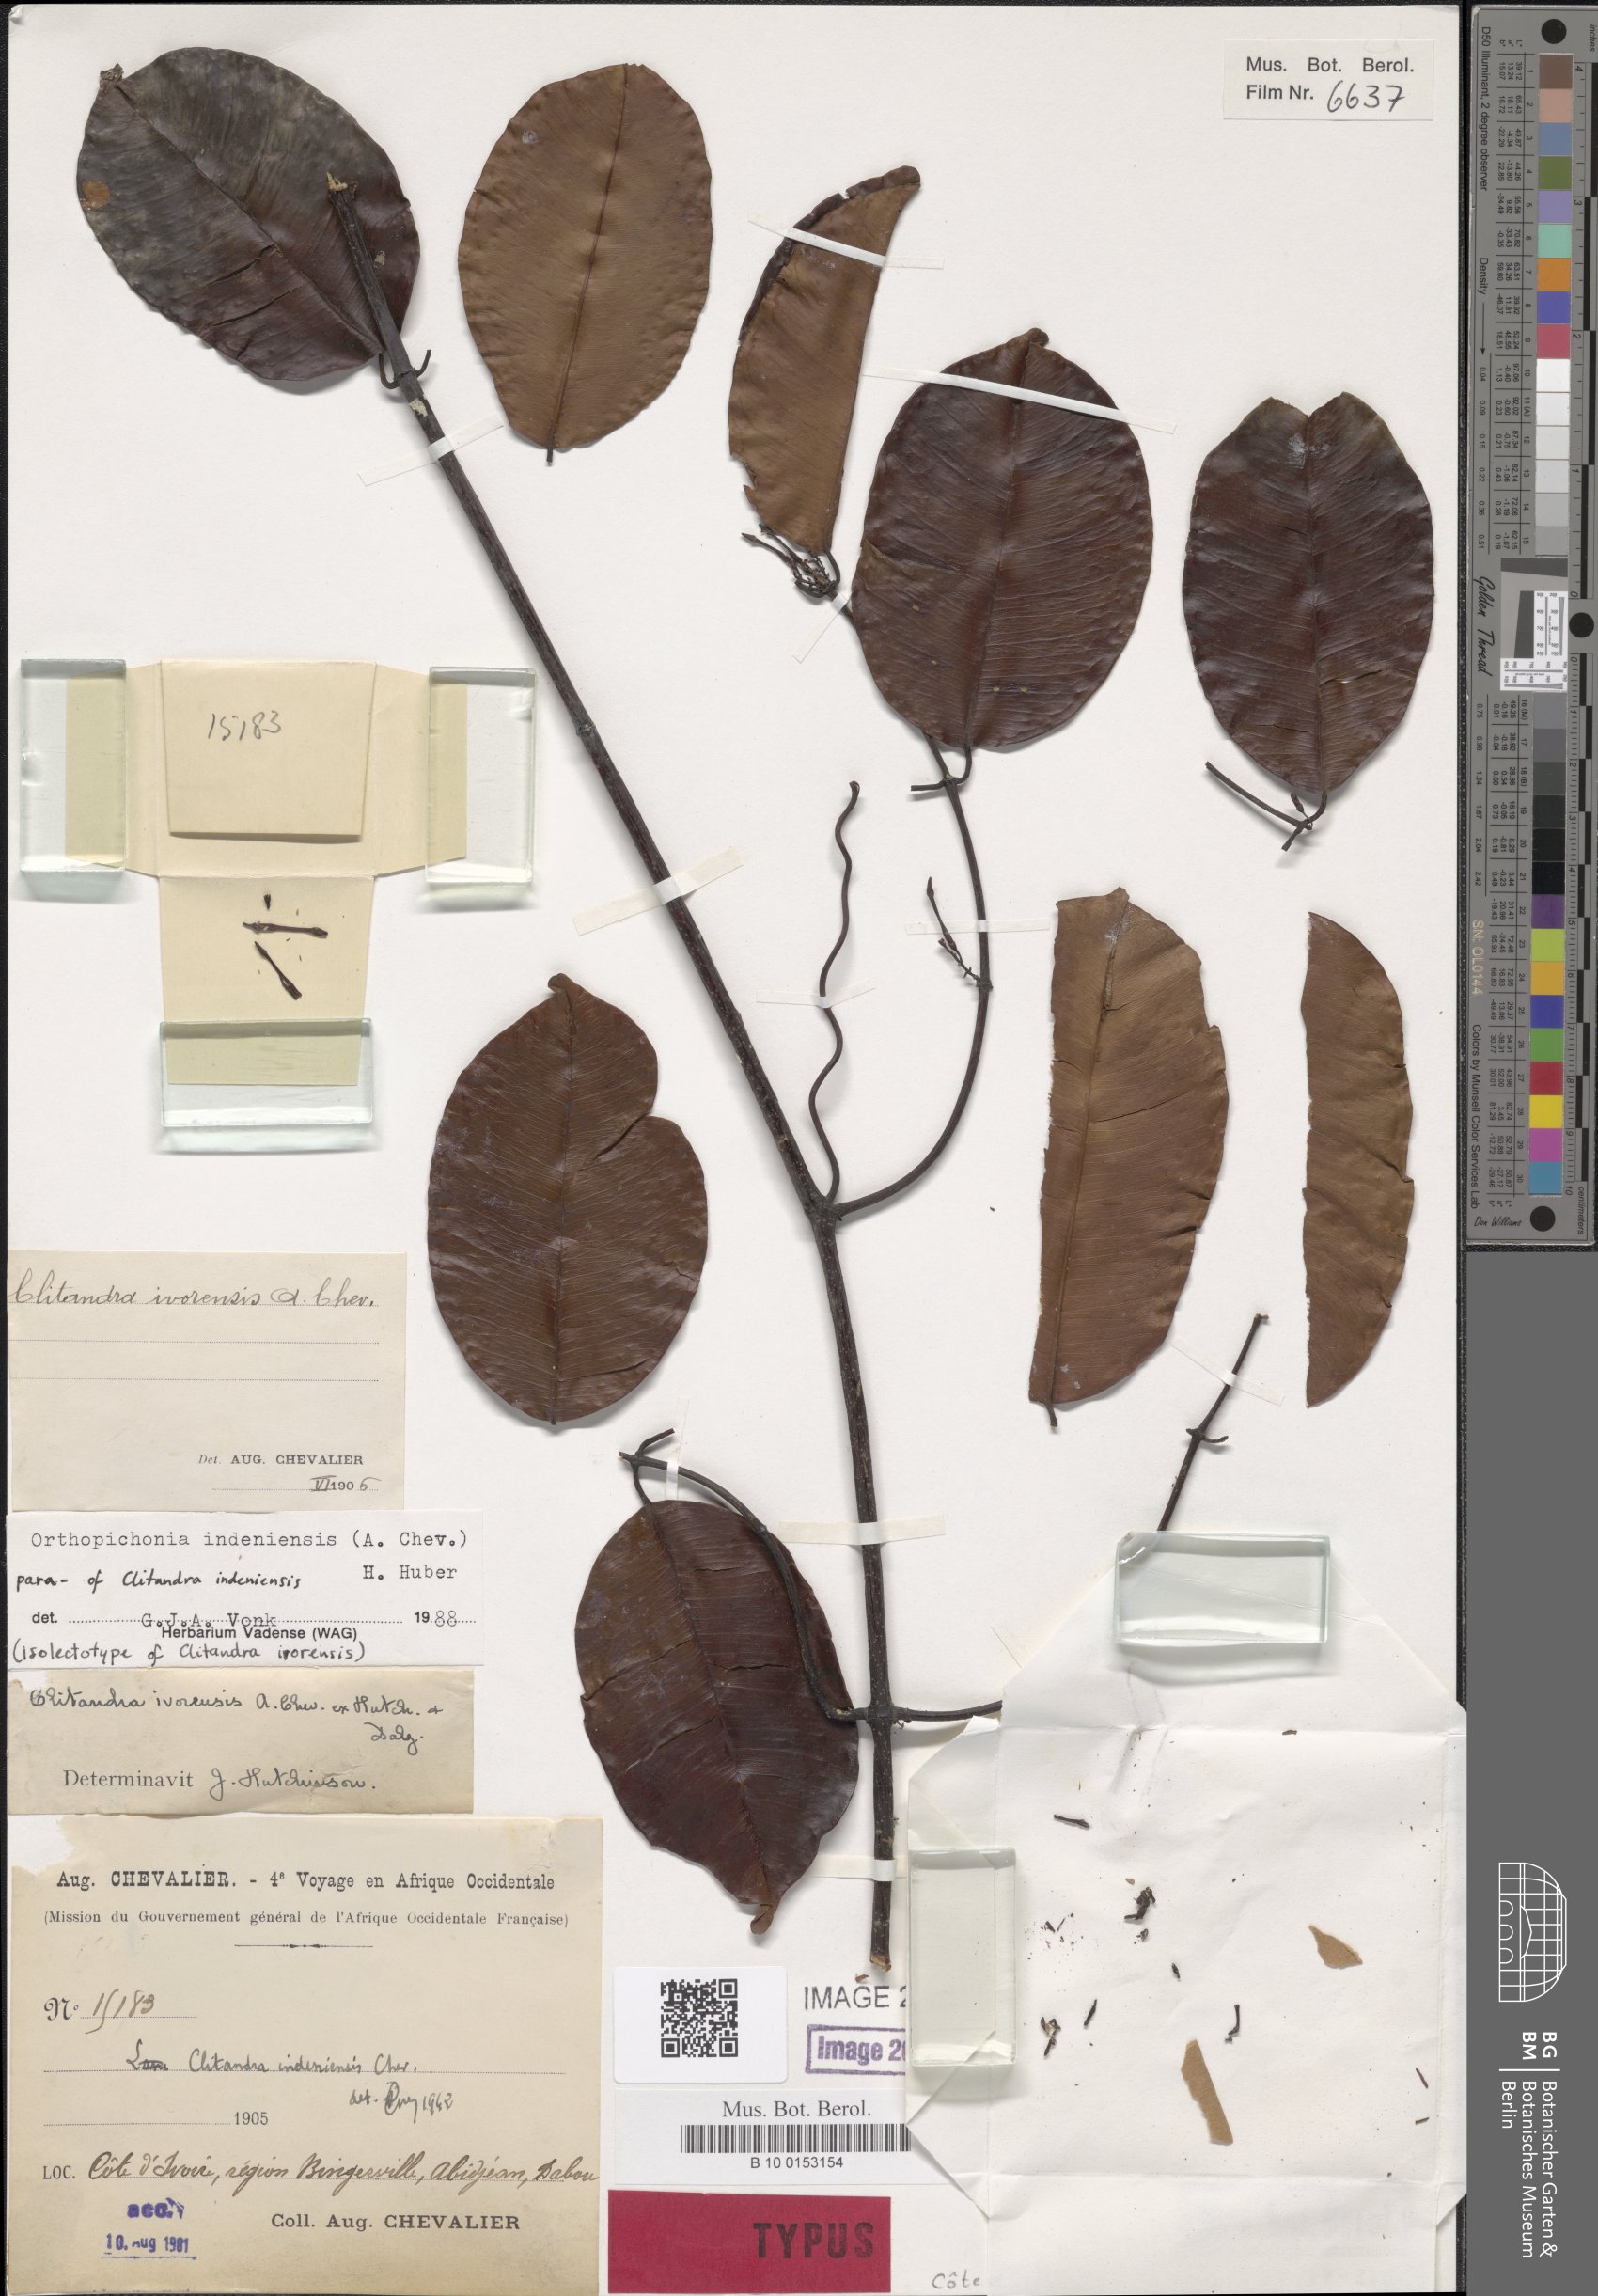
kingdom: Plantae
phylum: Tracheophyta
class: Magnoliopsida
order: Gentianales
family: Apocynaceae
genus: Orthopichonia
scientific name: Orthopichonia indeniensis
